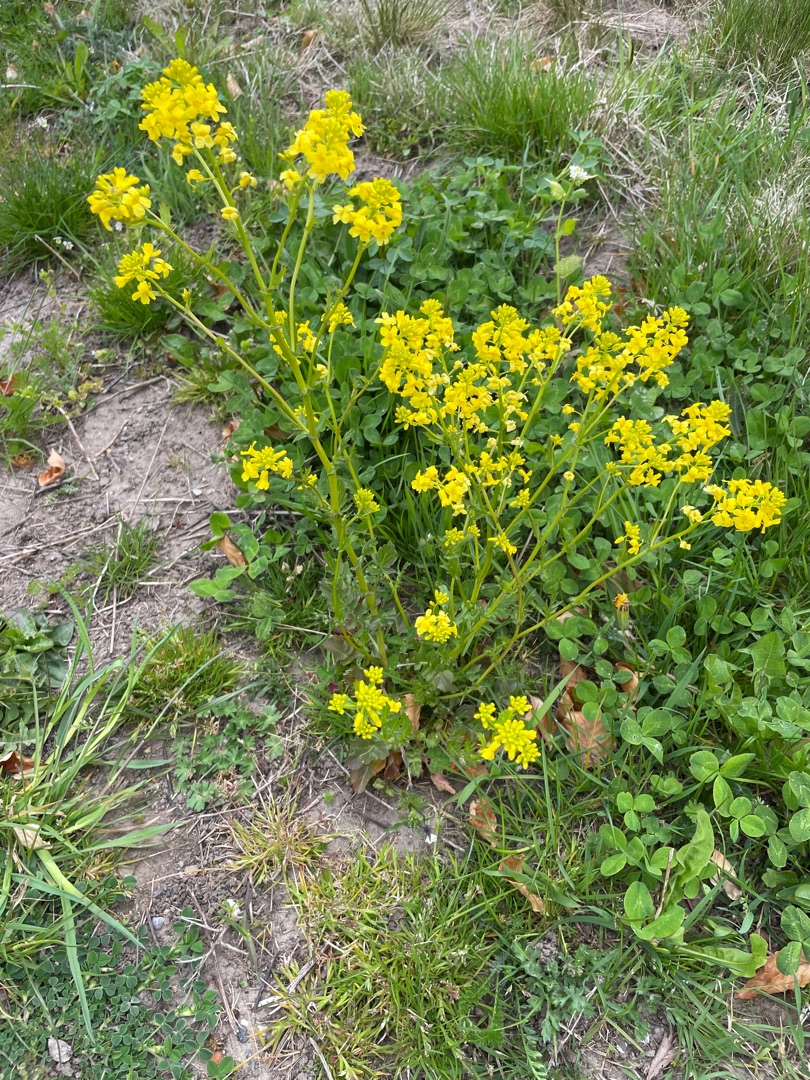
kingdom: Plantae
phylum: Tracheophyta
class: Magnoliopsida
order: Brassicales
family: Brassicaceae
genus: Barbarea
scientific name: Barbarea vulgaris
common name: Almindelig vinterkarse
